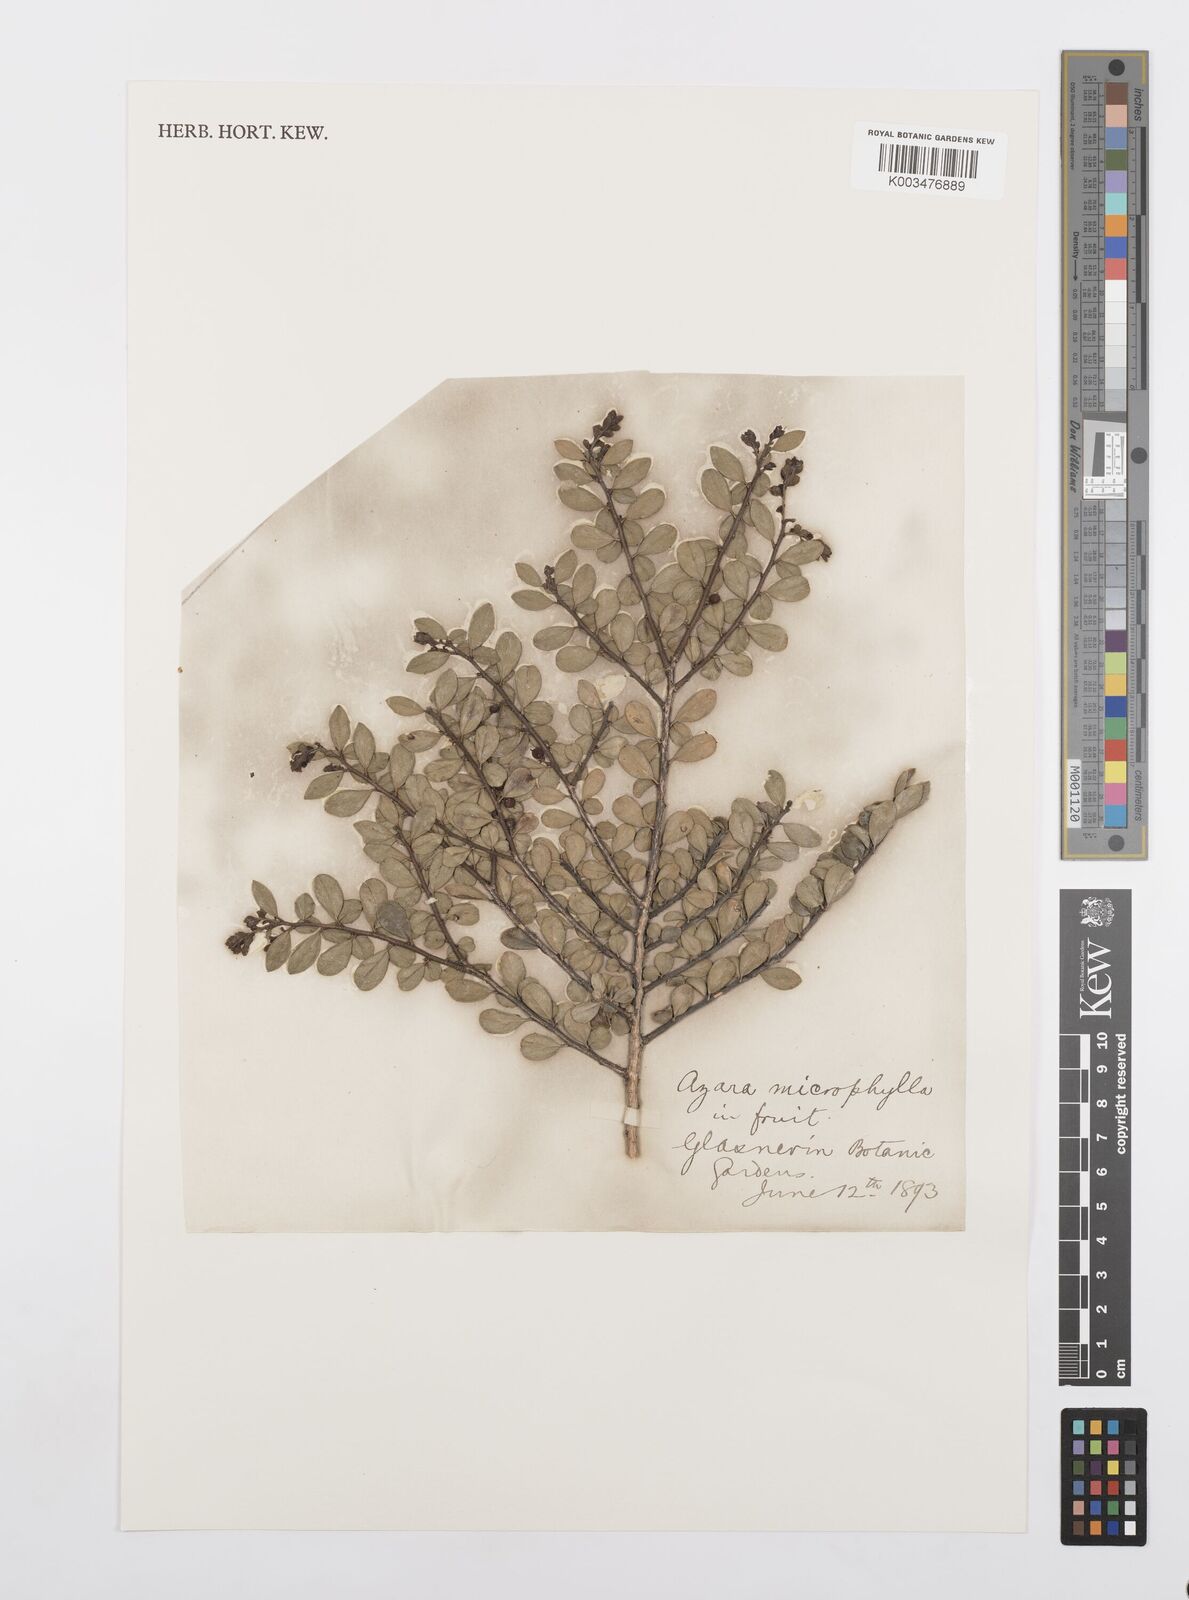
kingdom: Plantae
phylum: Tracheophyta
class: Magnoliopsida
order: Malpighiales
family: Salicaceae
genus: Azara
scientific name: Azara microphylla
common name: Box-leaf azara
